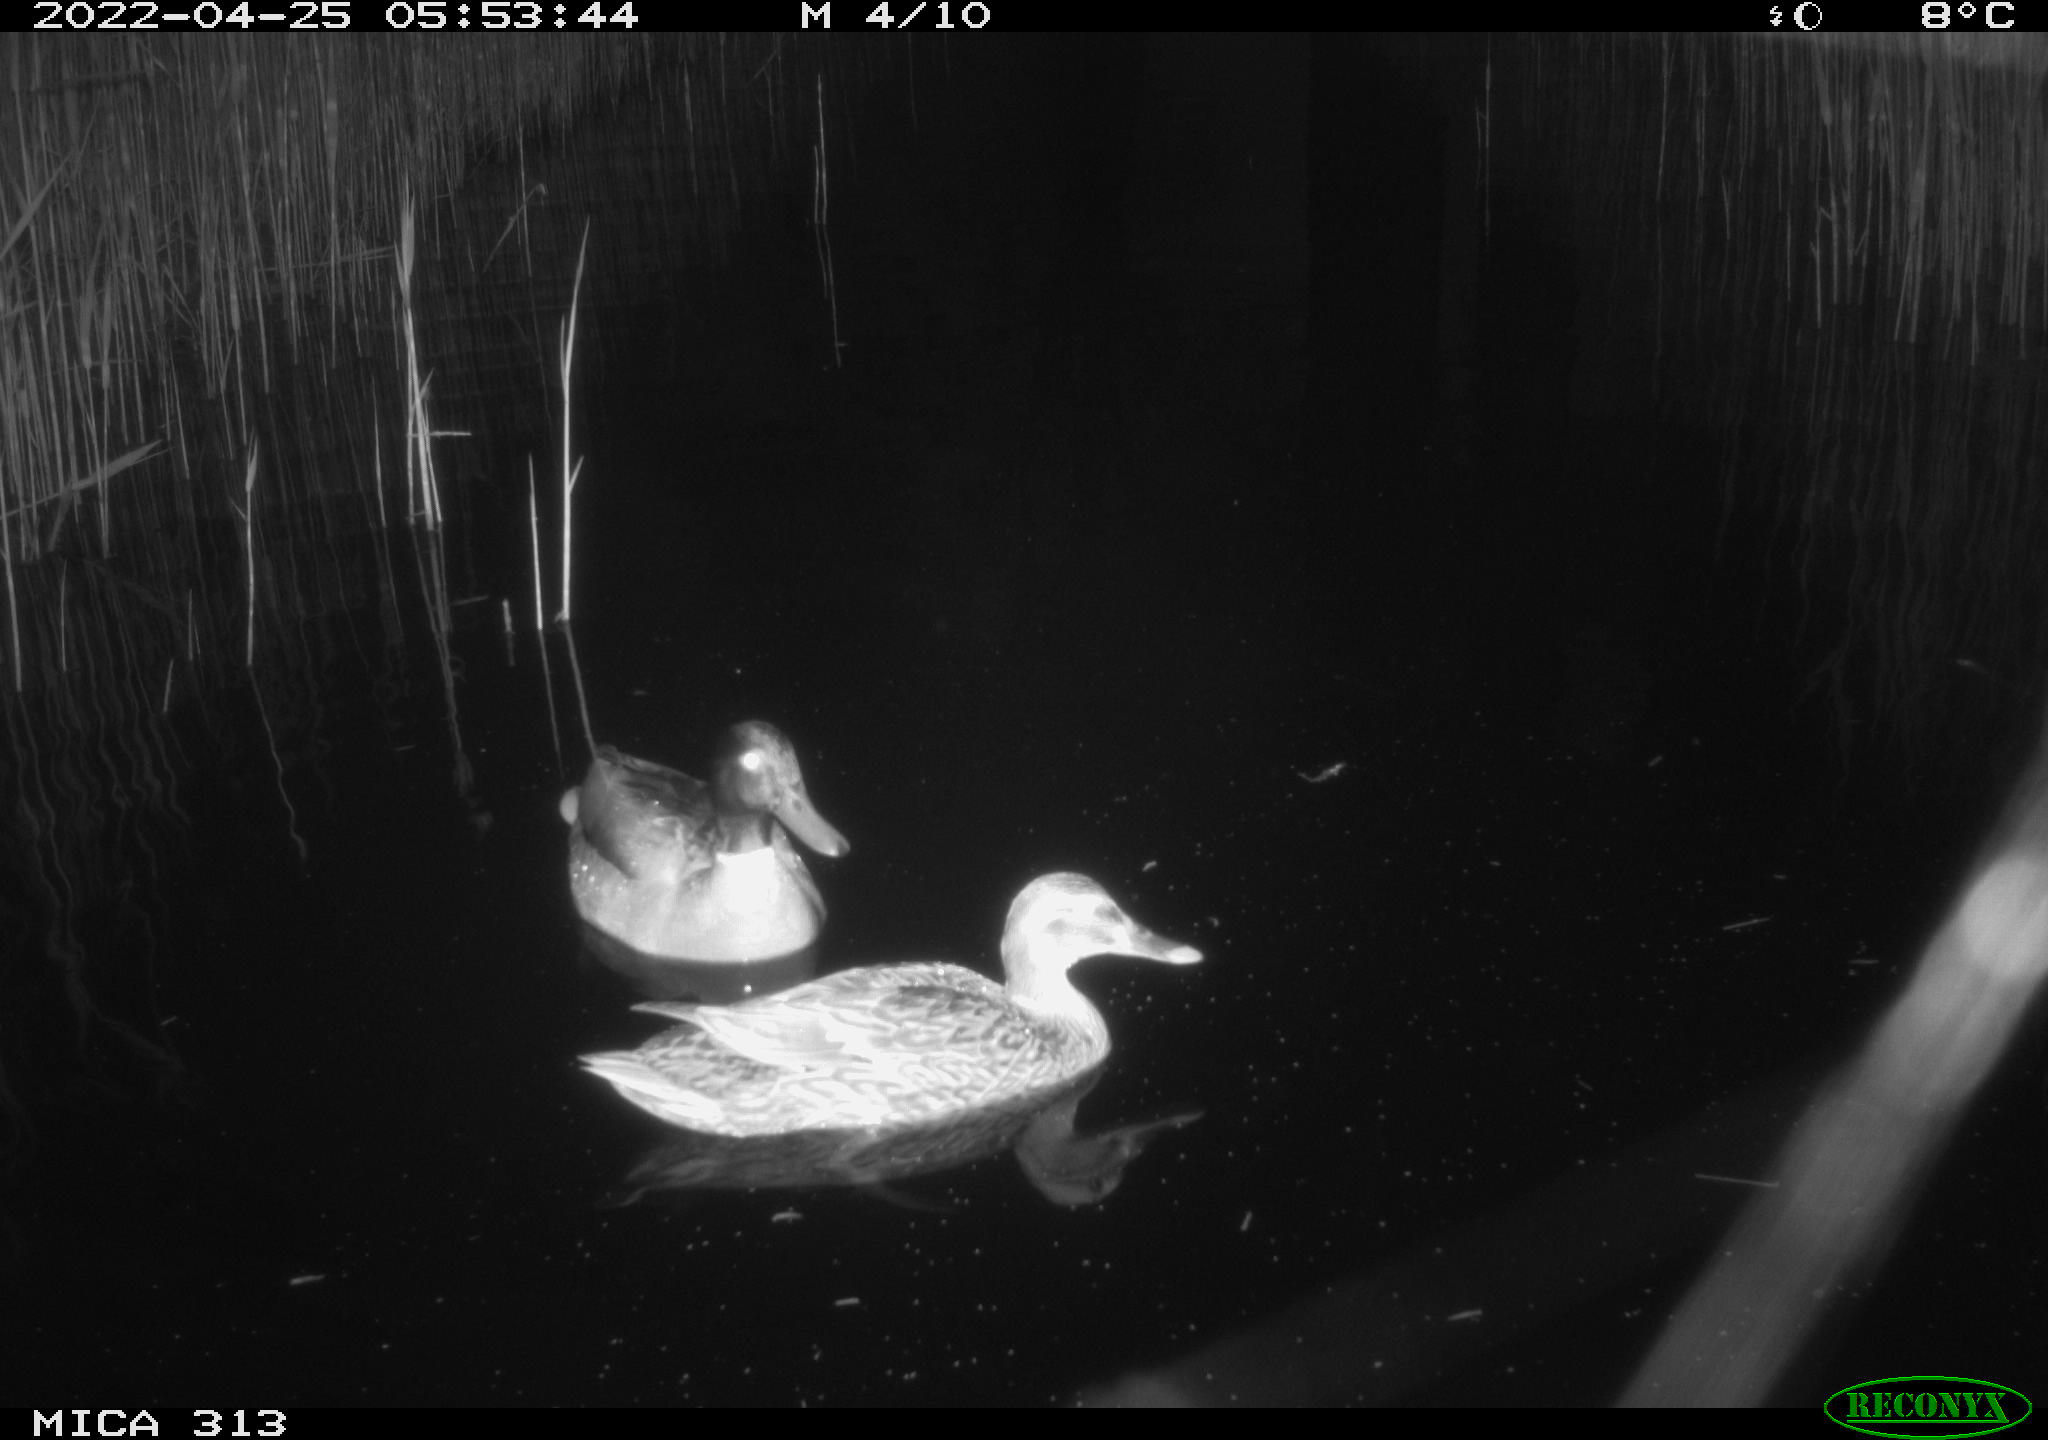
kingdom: Animalia
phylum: Chordata
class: Aves
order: Anseriformes
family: Anatidae
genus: Anas
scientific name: Anas platyrhynchos
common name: Mallard
